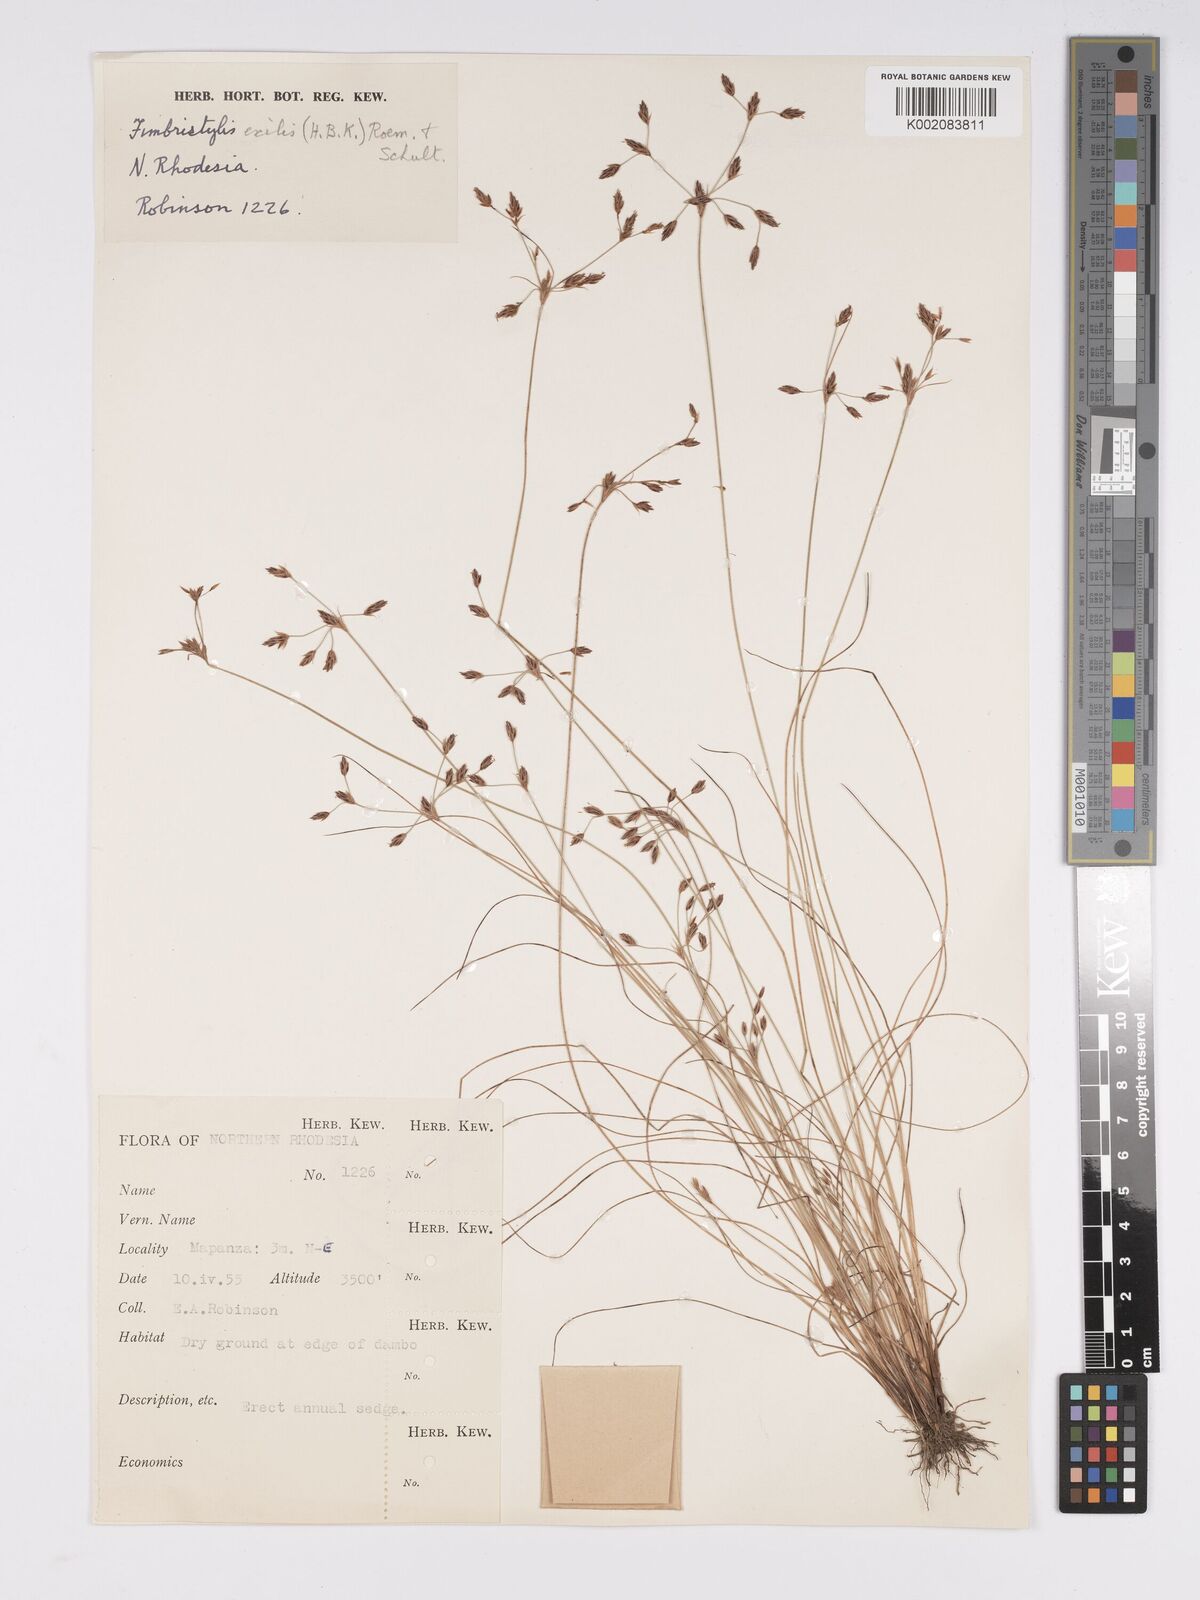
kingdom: Plantae
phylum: Tracheophyta
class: Liliopsida
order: Poales
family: Cyperaceae
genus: Bulbostylis
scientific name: Bulbostylis hispidula
